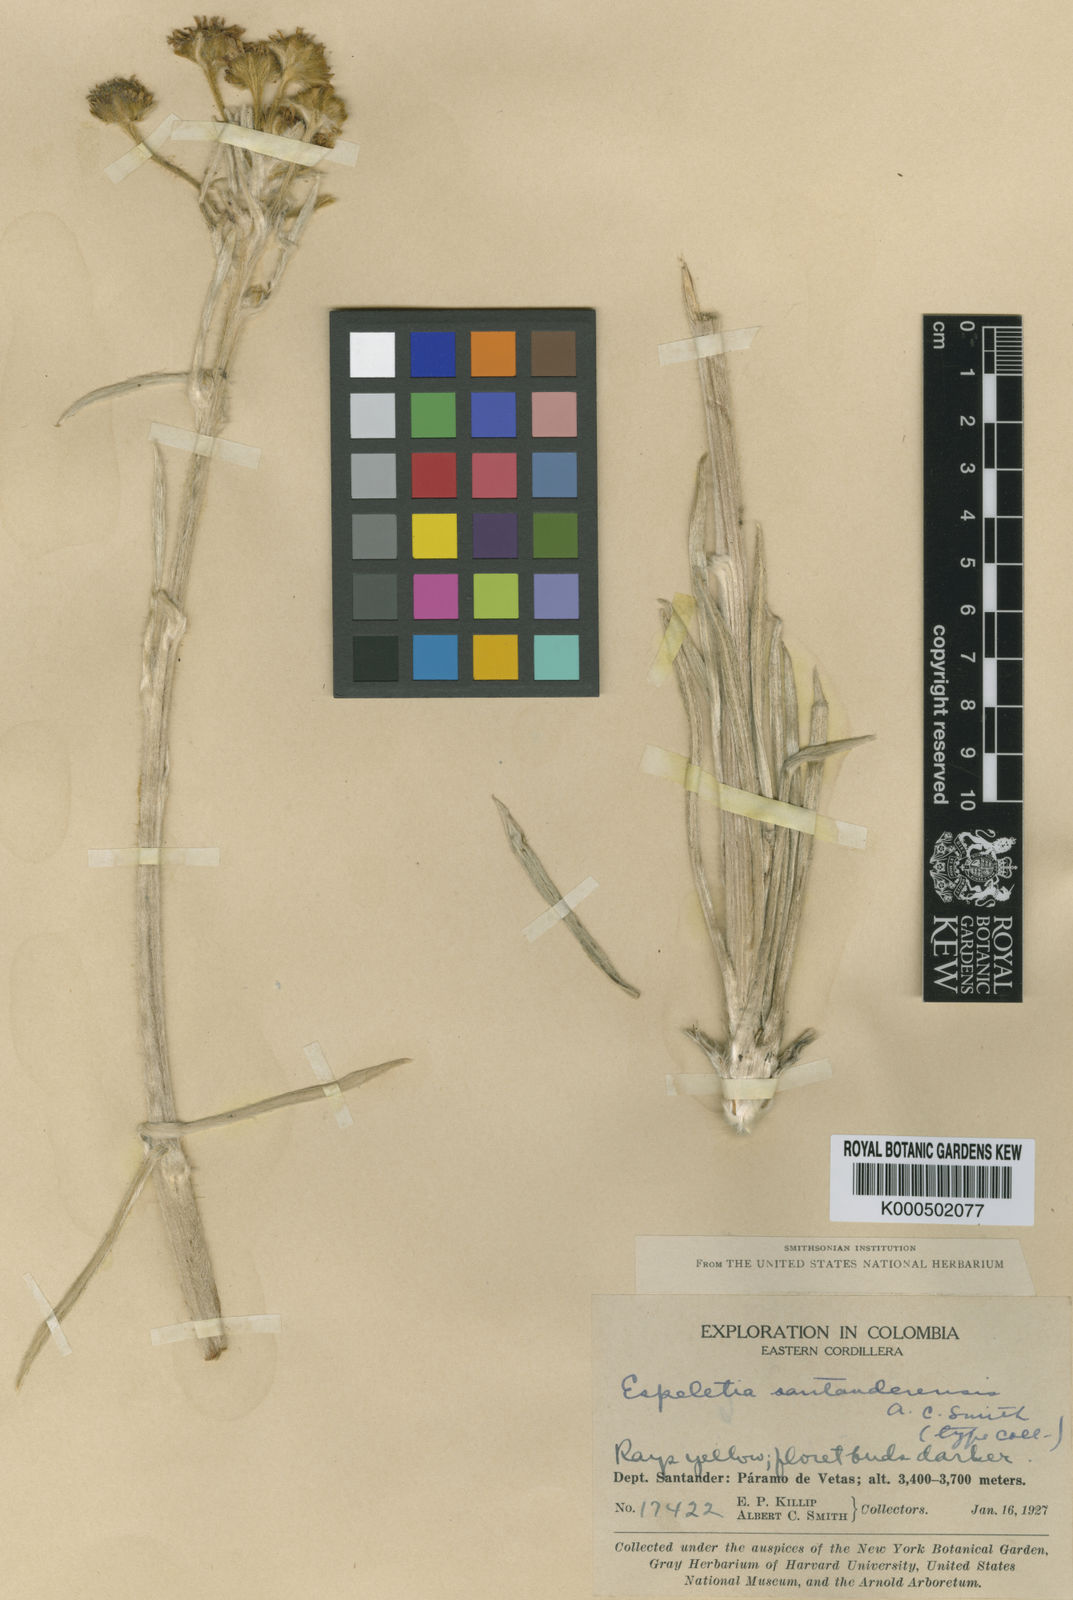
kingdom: Plantae
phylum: Tracheophyta
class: Magnoliopsida
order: Asterales
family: Asteraceae
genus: Espeletia
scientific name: Espeletia santanderensis
